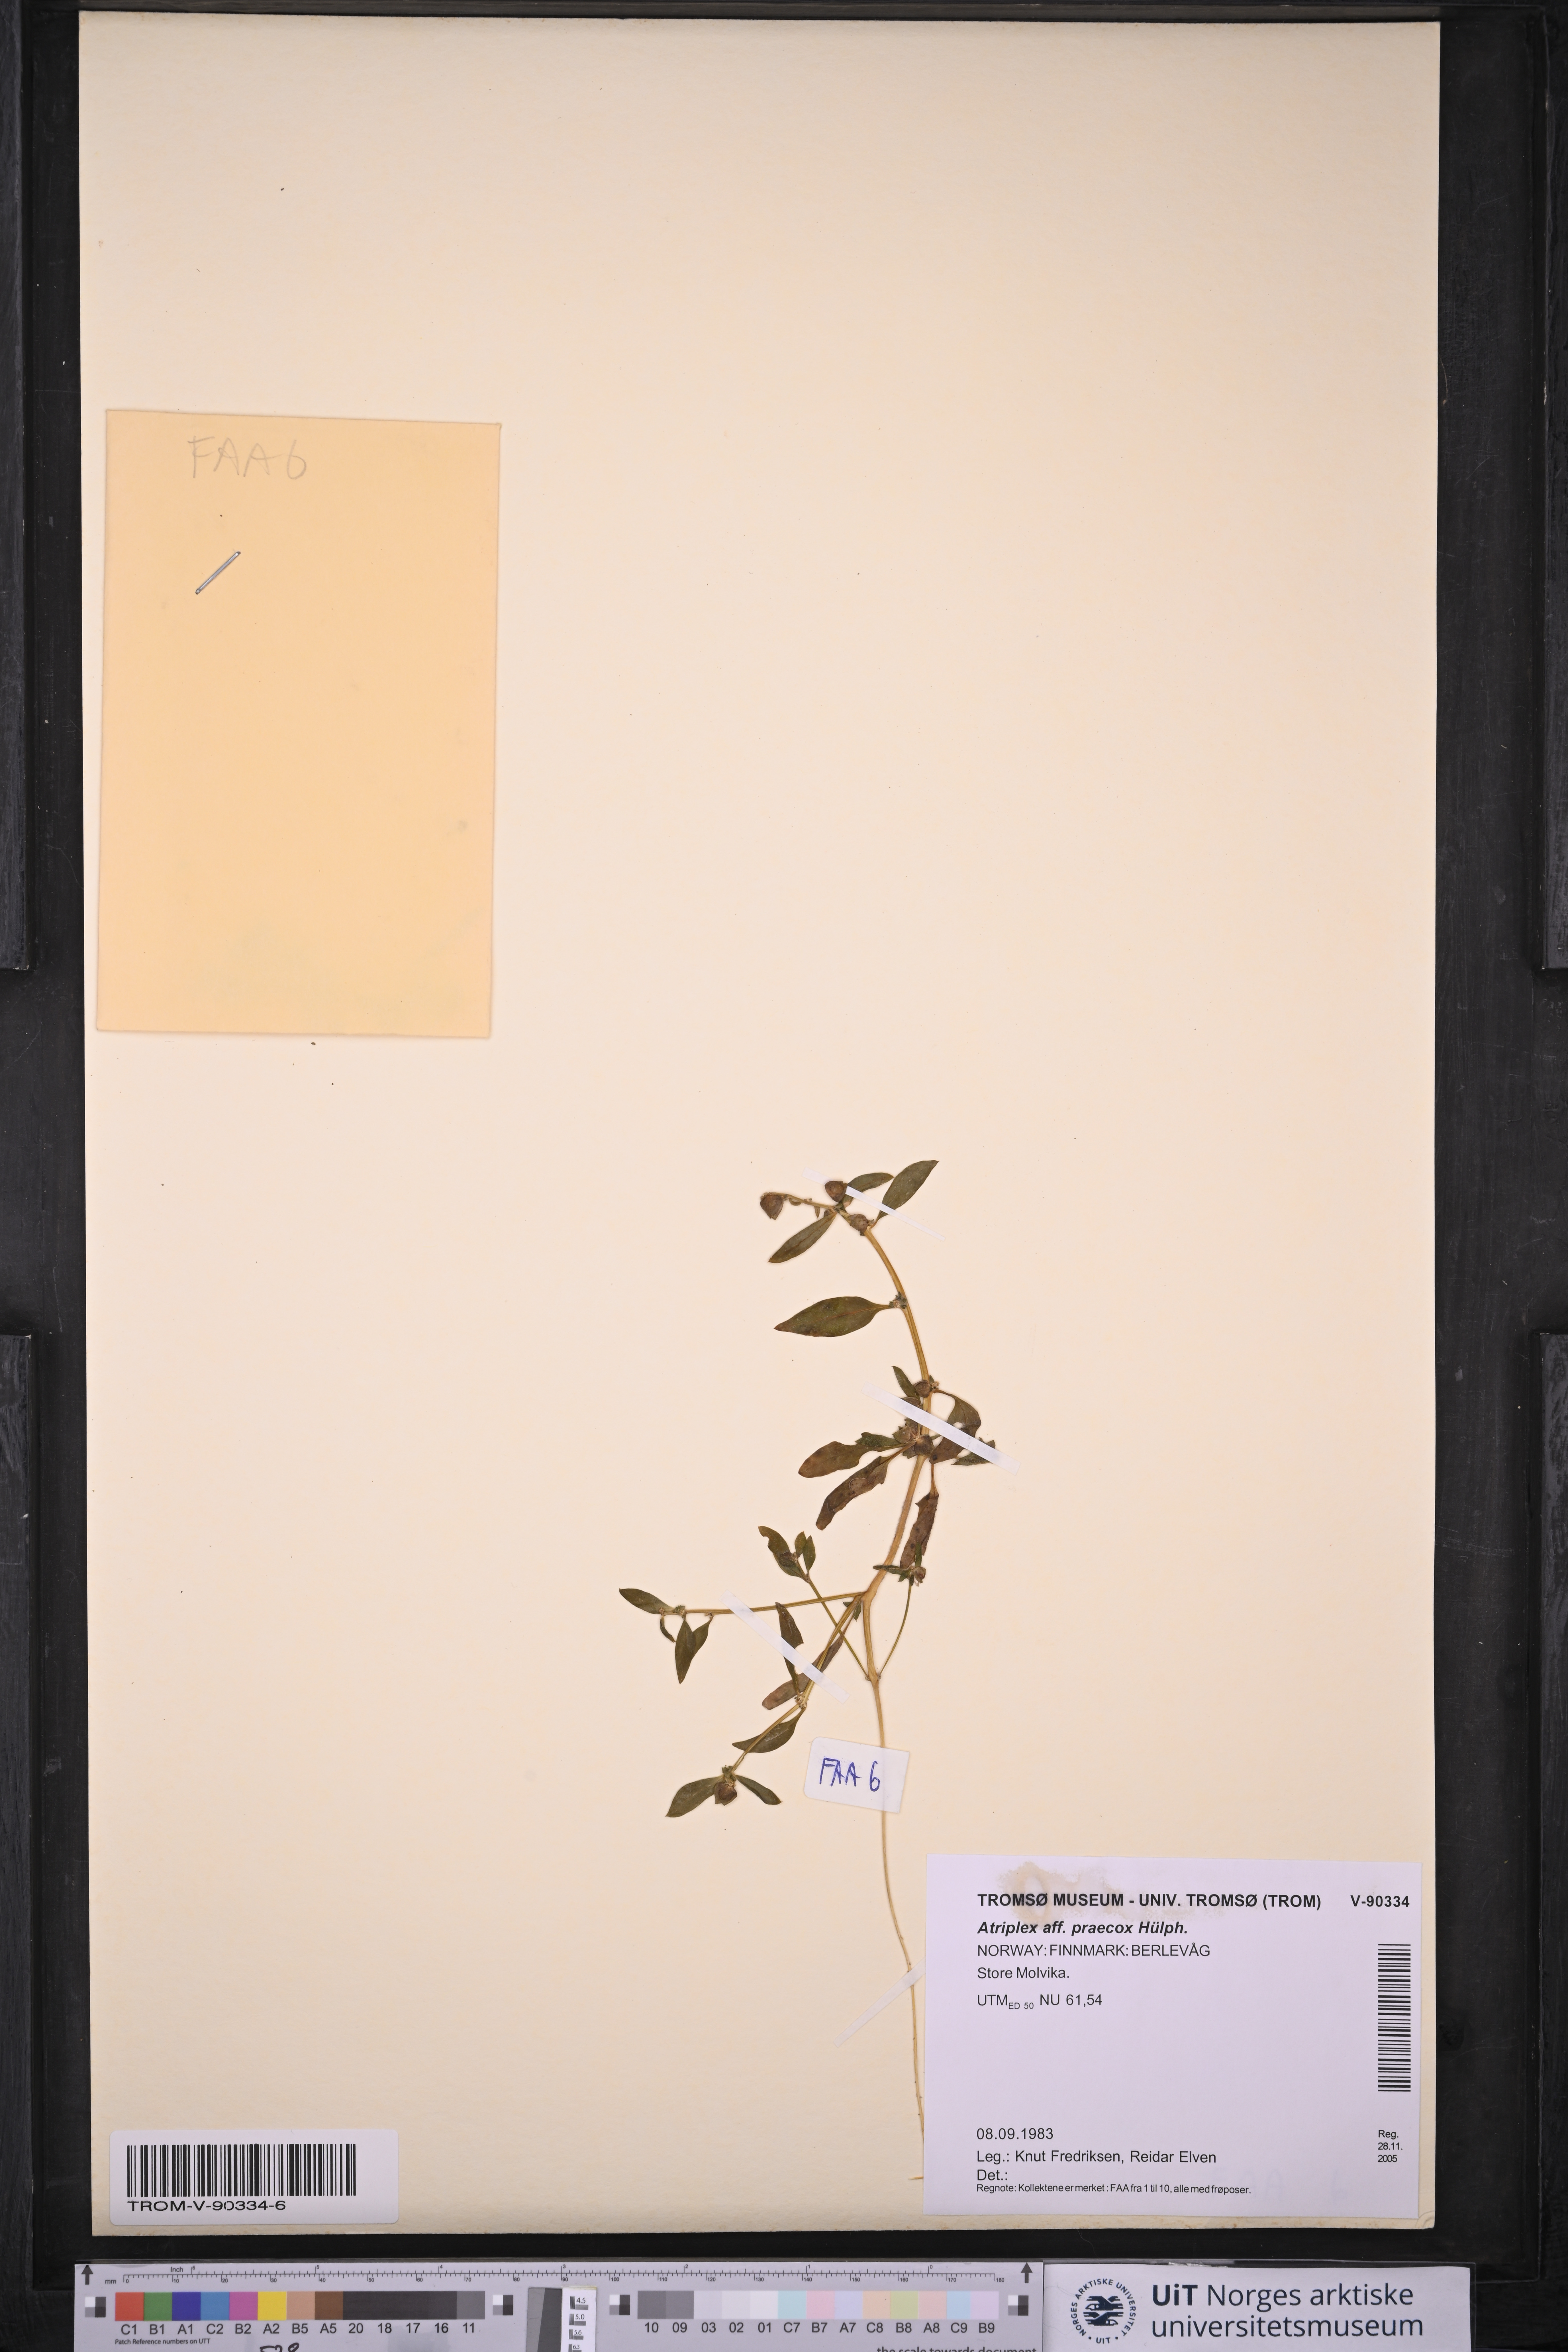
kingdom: Plantae
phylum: Tracheophyta
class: Magnoliopsida
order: Caryophyllales
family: Amaranthaceae
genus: Atriplex
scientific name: Atriplex praecox
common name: Early orache
